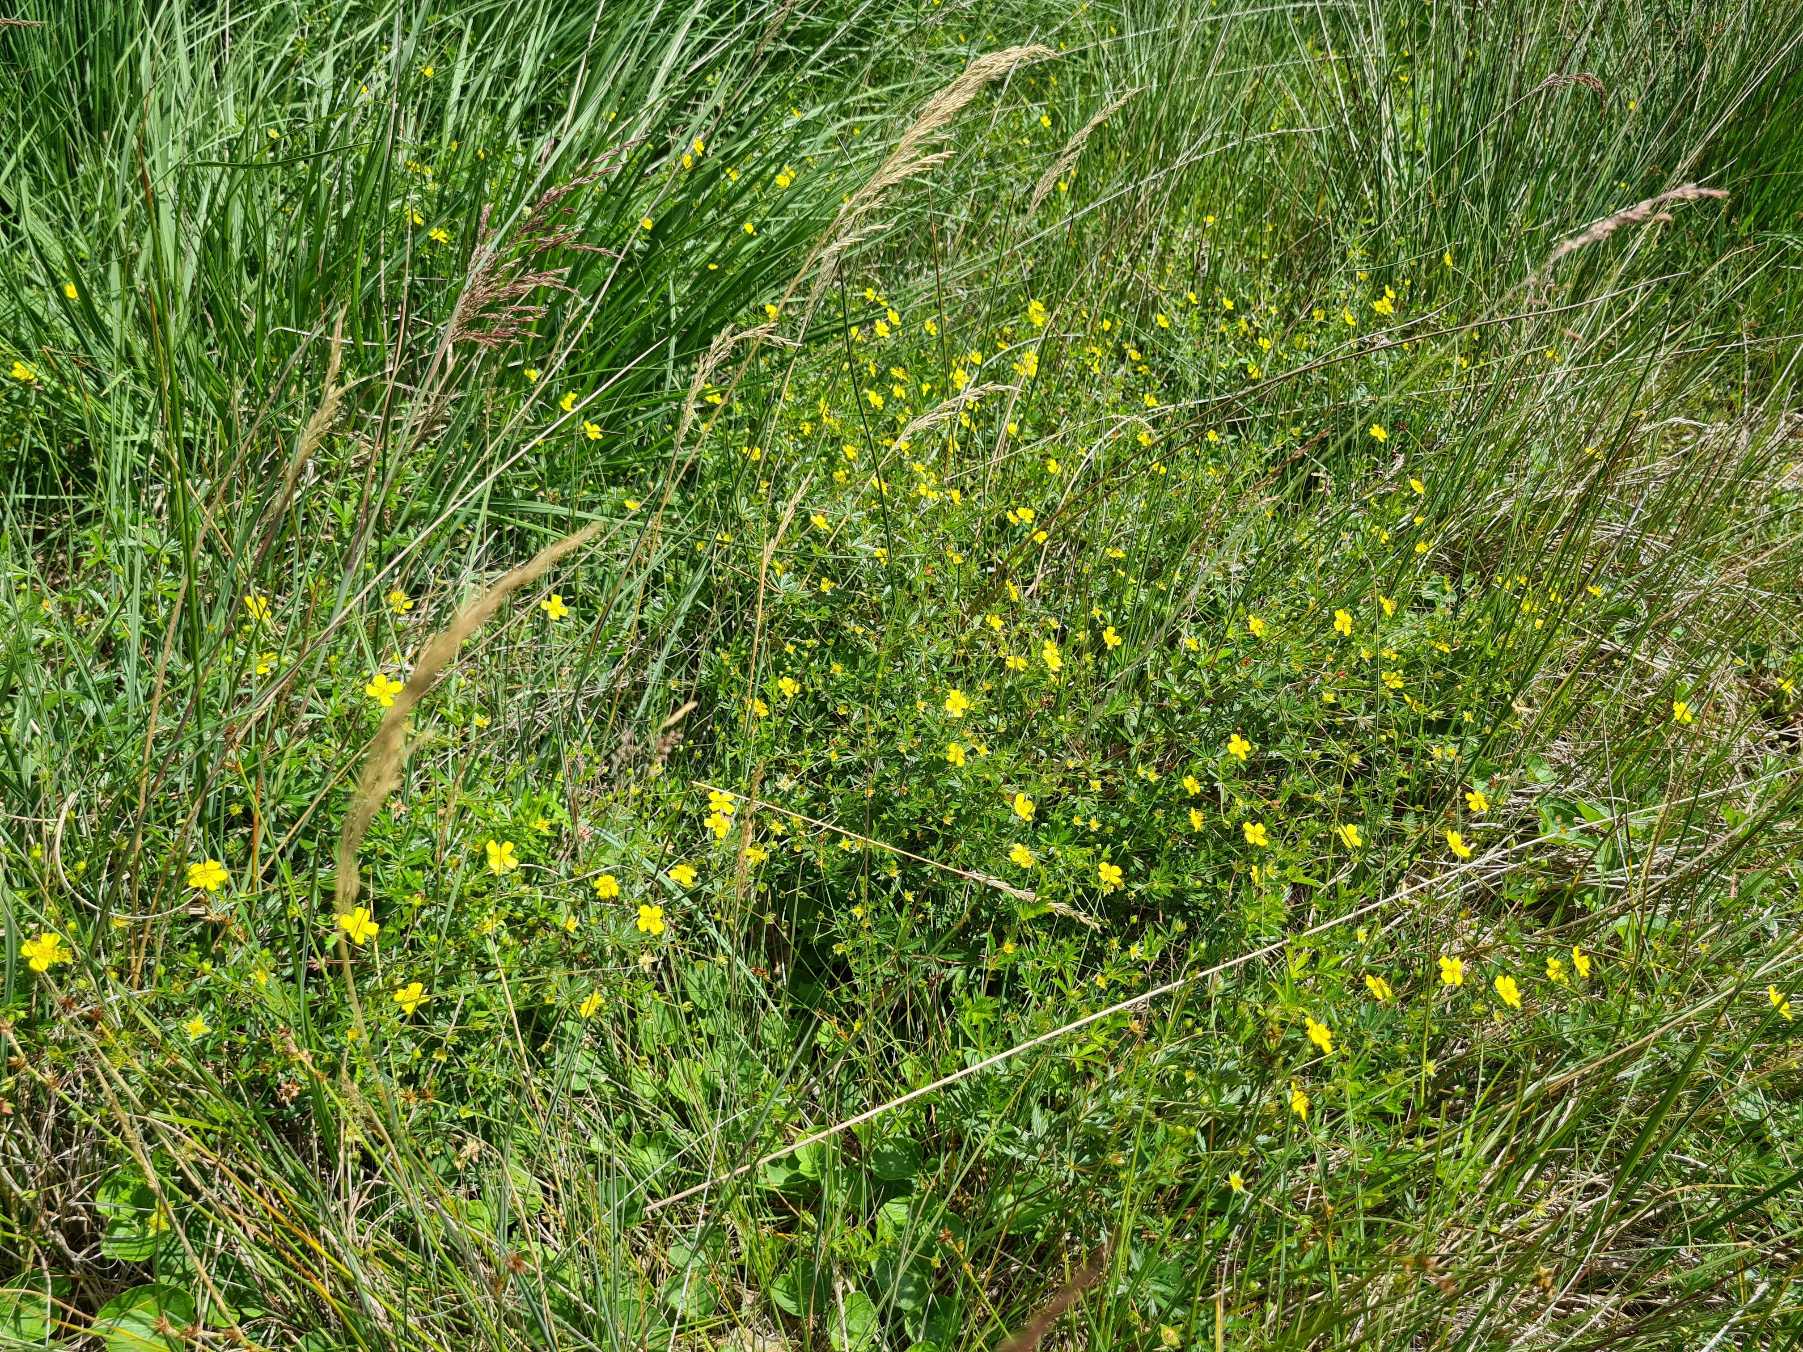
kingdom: Plantae
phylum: Tracheophyta
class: Magnoliopsida
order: Rosales
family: Rosaceae
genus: Potentilla
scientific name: Potentilla erecta
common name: Tormentil
